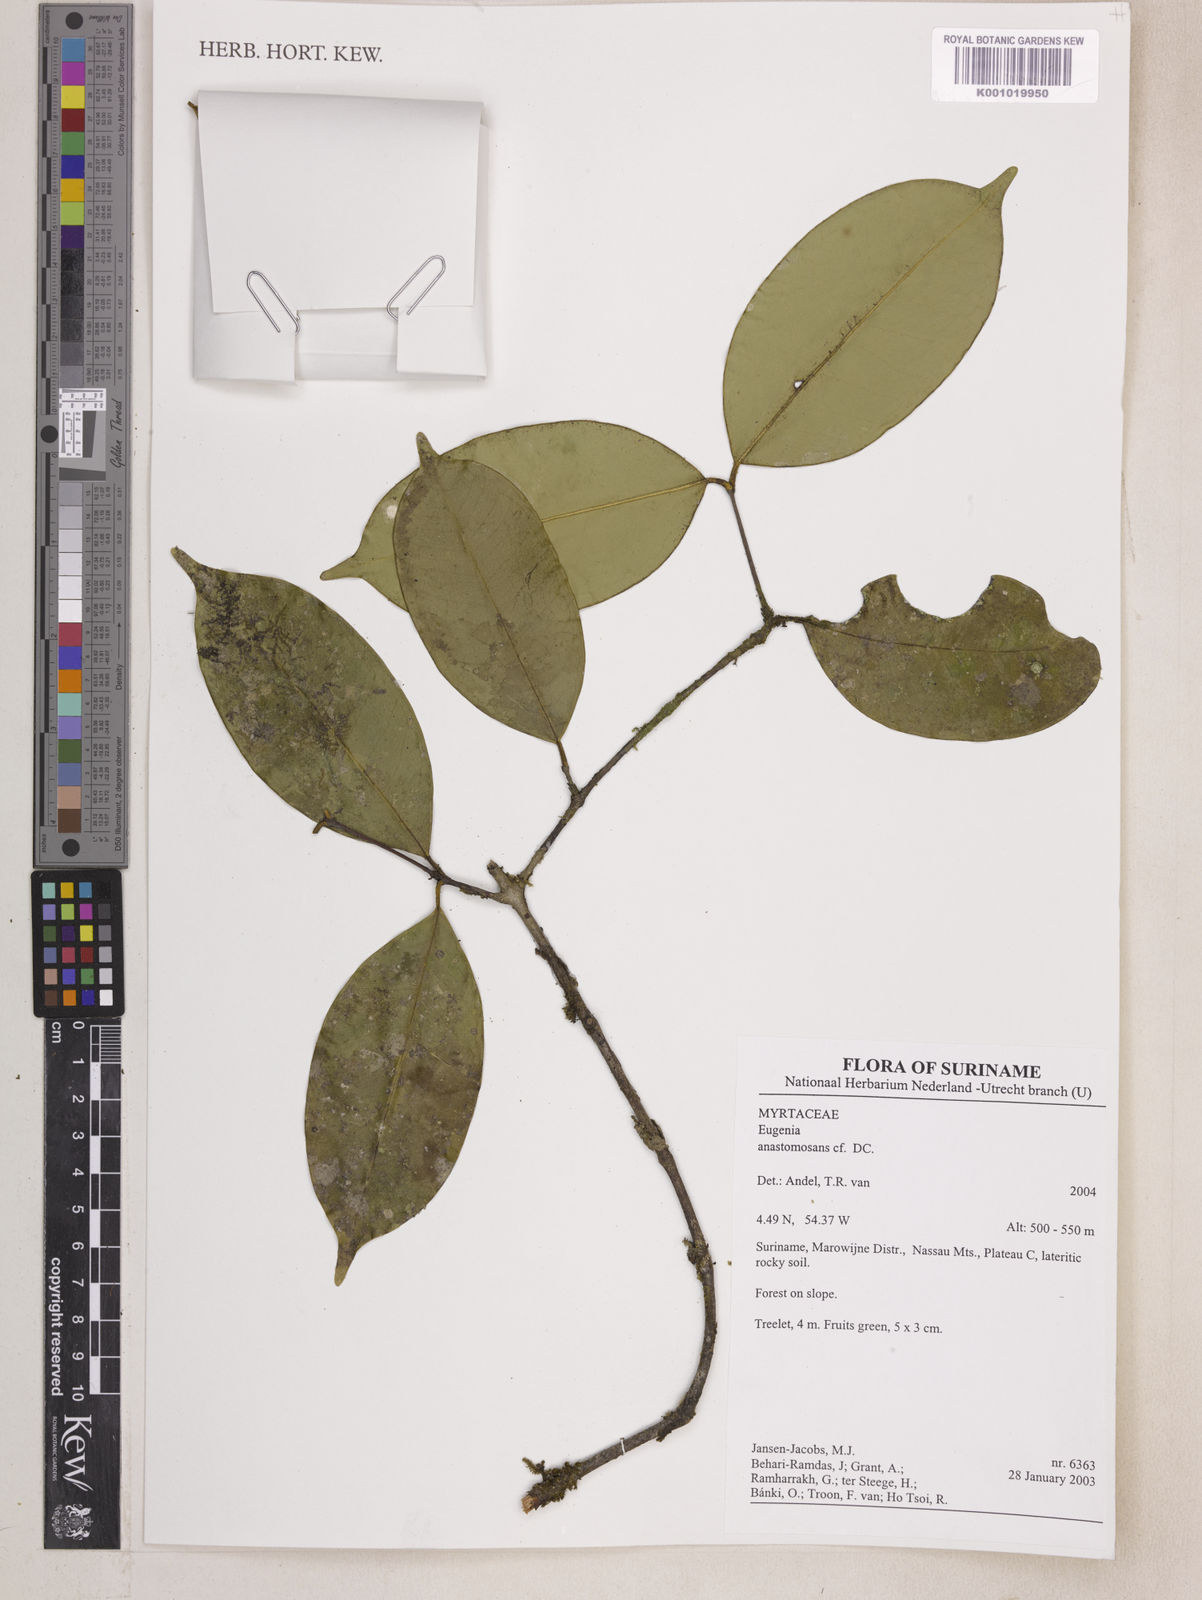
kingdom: Plantae
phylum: Tracheophyta
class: Magnoliopsida
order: Myrtales
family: Myrtaceae
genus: Eugenia
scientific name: Eugenia wentii
